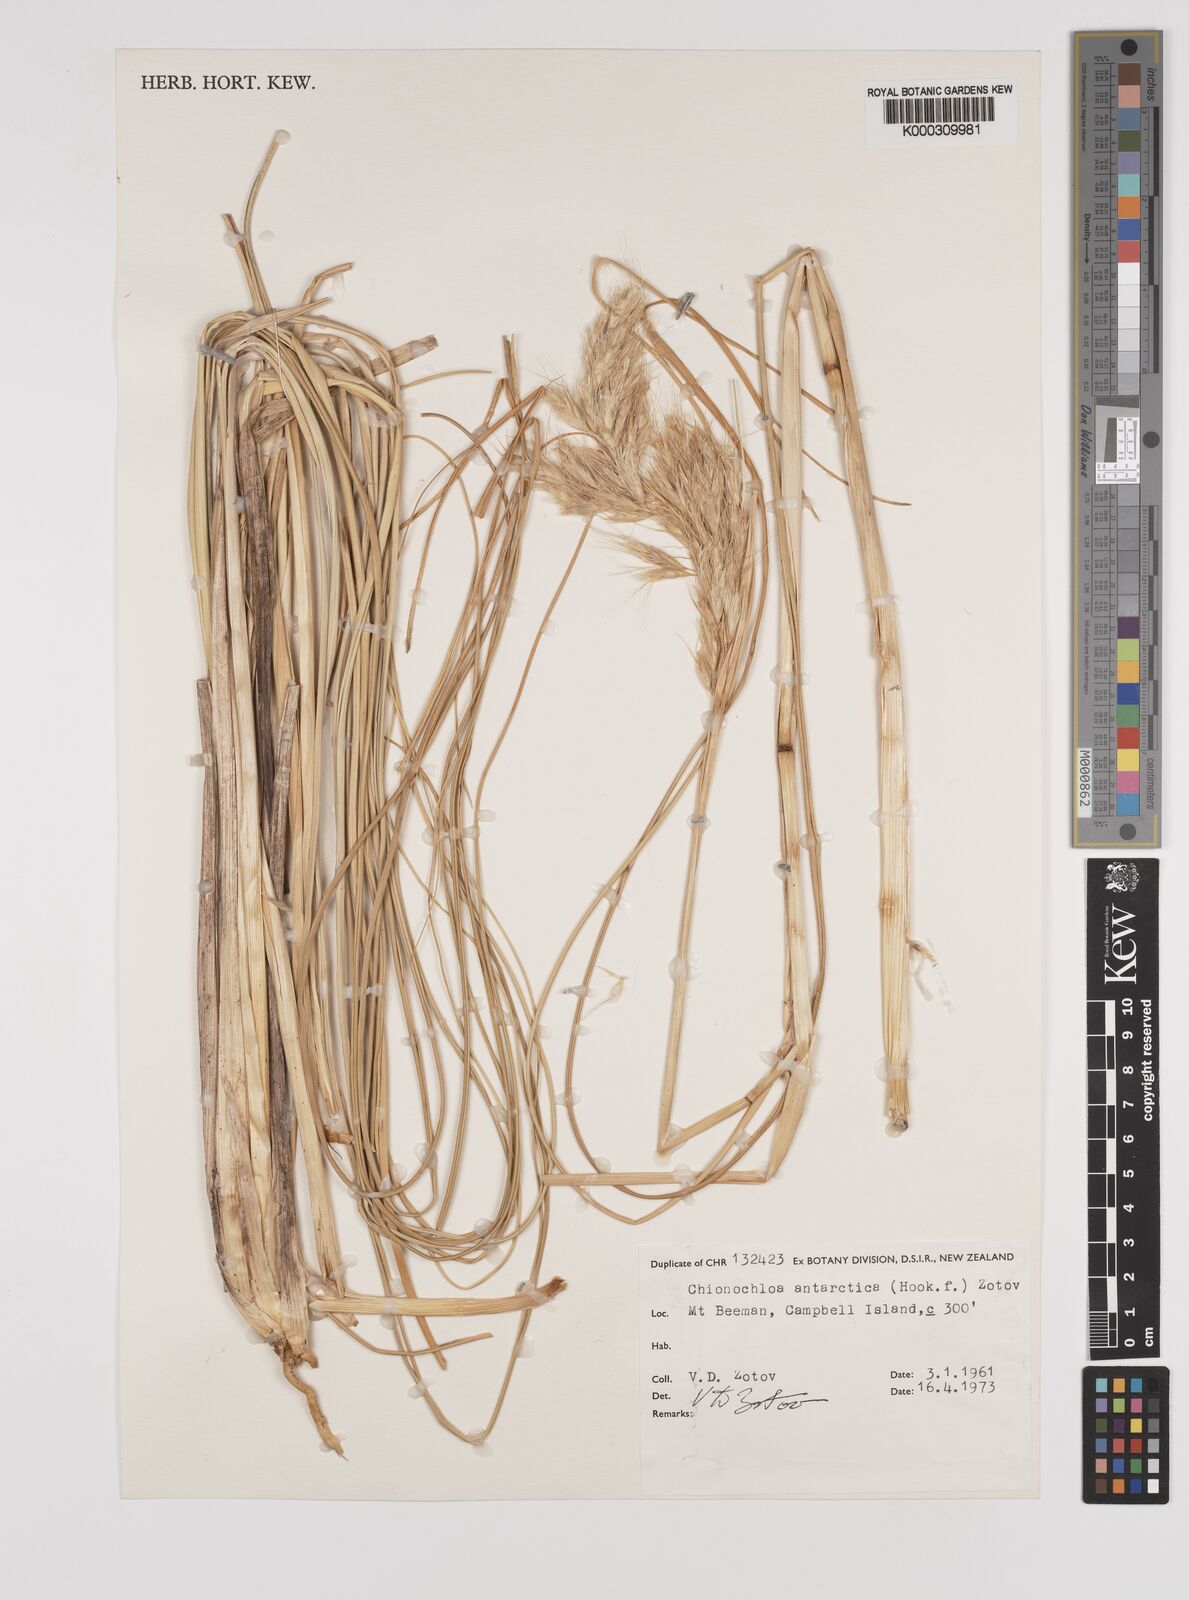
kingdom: Plantae
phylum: Tracheophyta
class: Liliopsida
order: Poales
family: Poaceae
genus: Chionochloa
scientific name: Chionochloa antarctica
